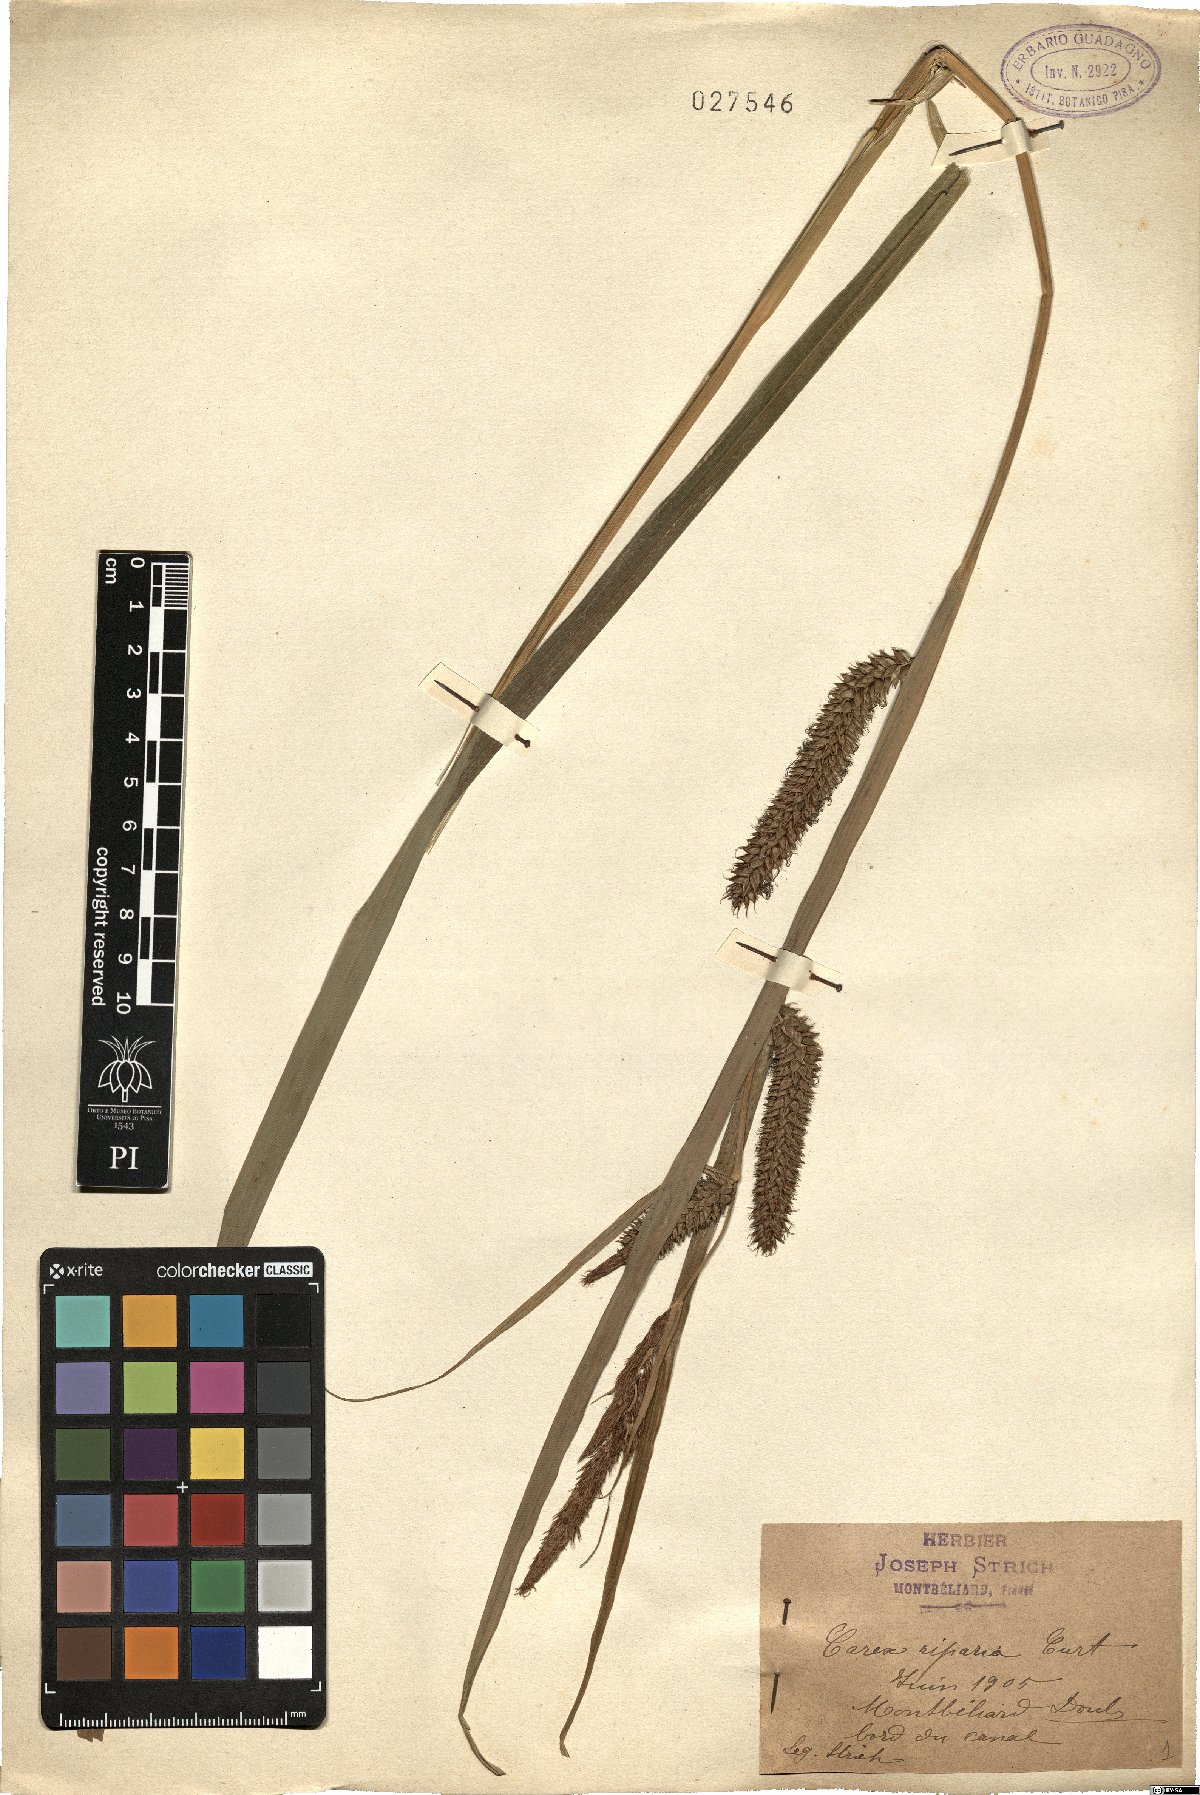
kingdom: Plantae
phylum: Tracheophyta
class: Liliopsida
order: Poales
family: Cyperaceae
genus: Carex
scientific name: Carex riparia
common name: Greater pond-sedge
